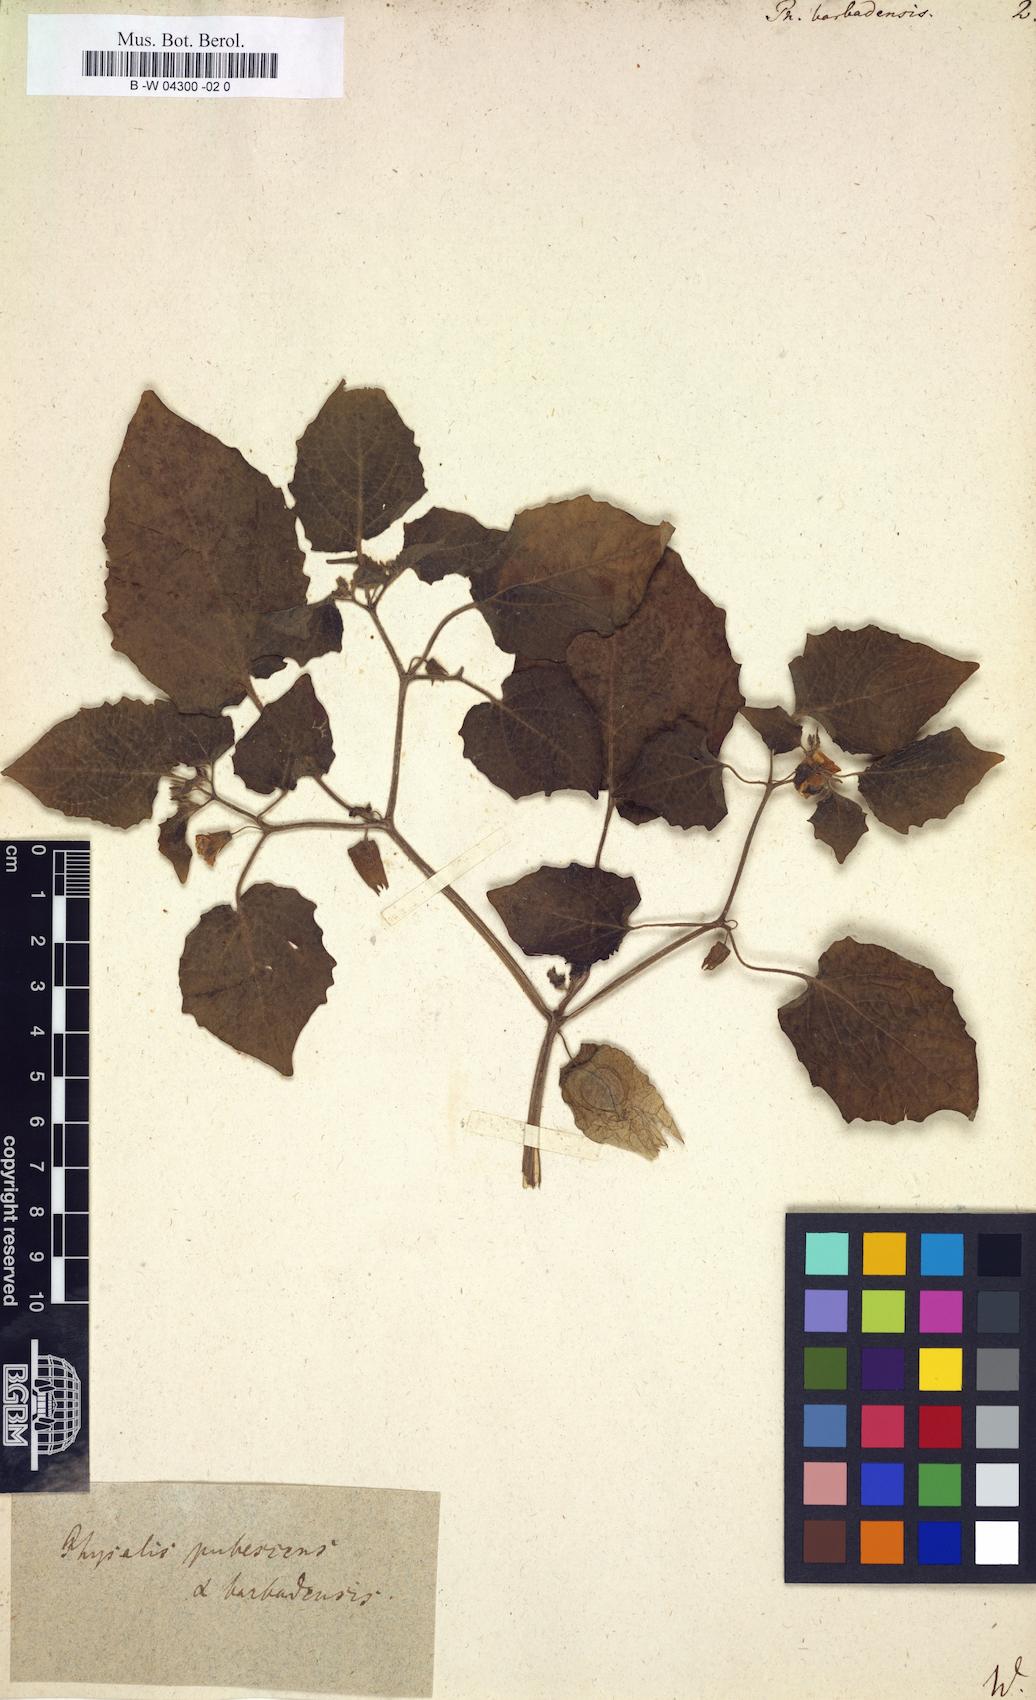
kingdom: Plantae
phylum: Tracheophyta
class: Magnoliopsida
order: Solanales
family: Solanaceae
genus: Physalis
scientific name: Physalis pubescens
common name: Downy ground-cherry
